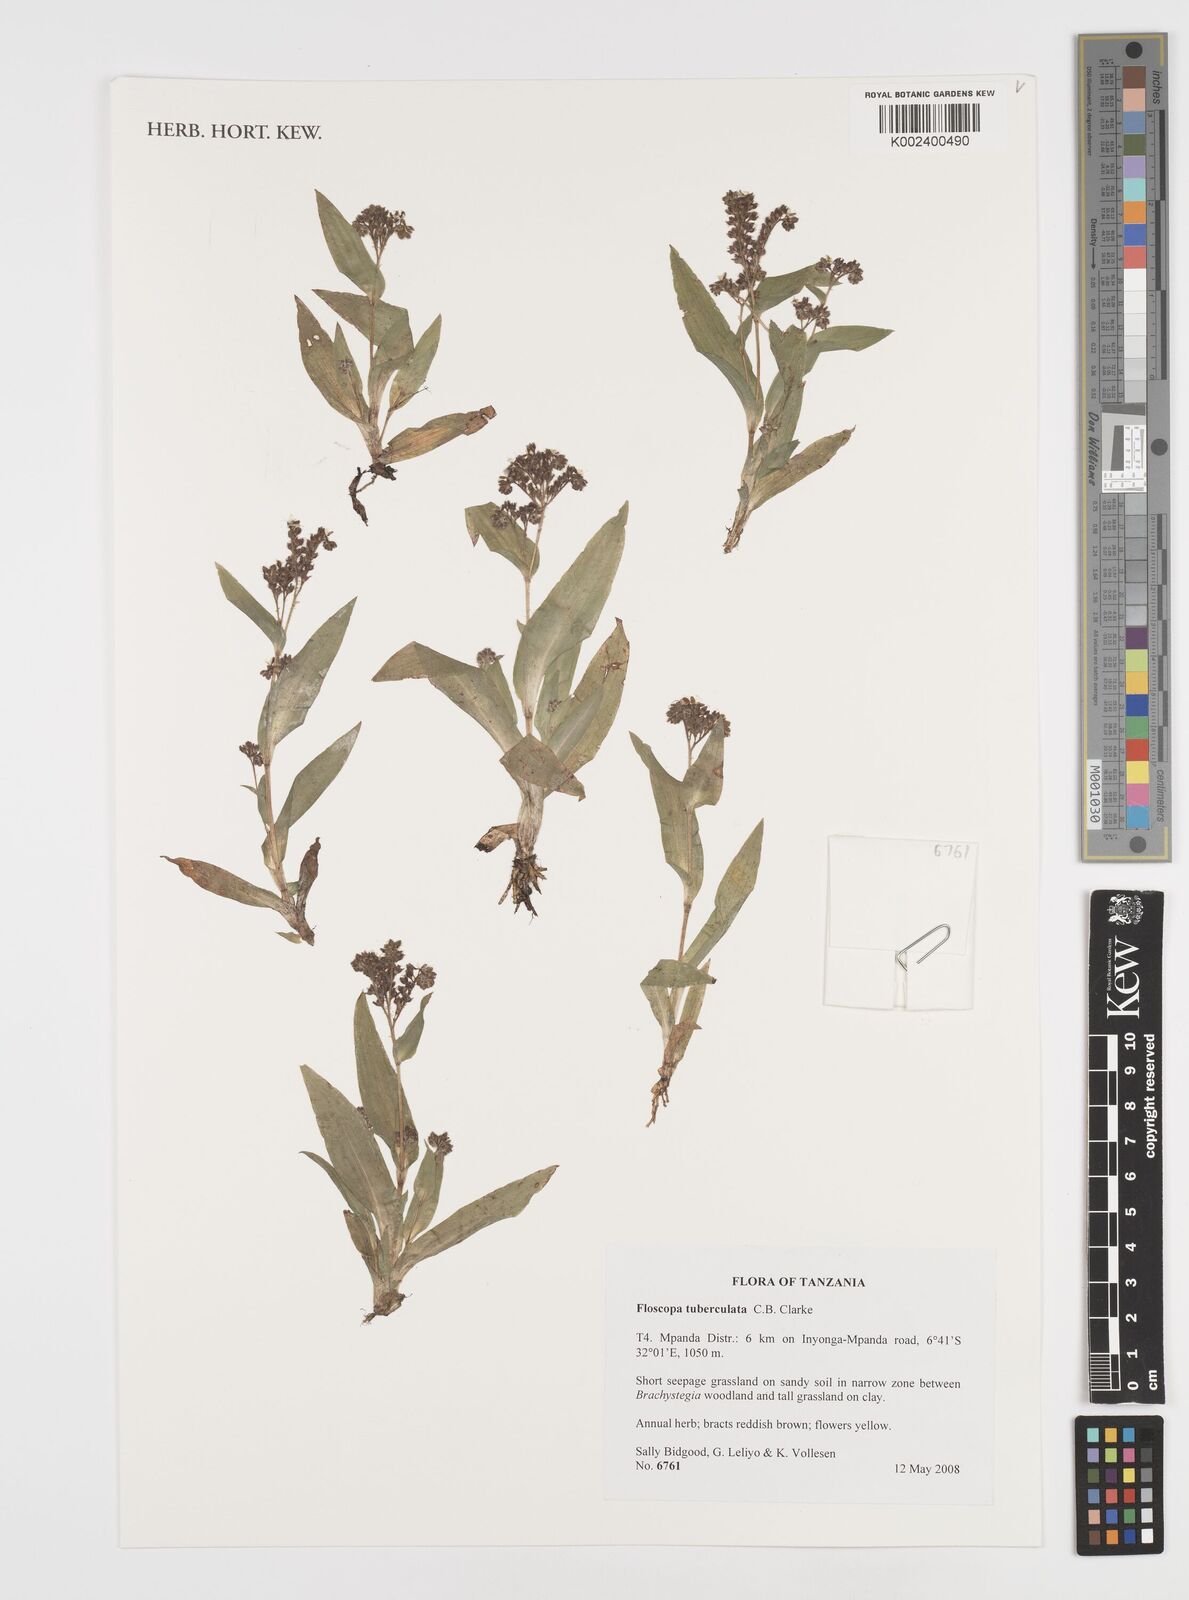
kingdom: Plantae
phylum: Tracheophyta
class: Liliopsida
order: Commelinales
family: Commelinaceae
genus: Floscopa
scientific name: Floscopa tuberculata
